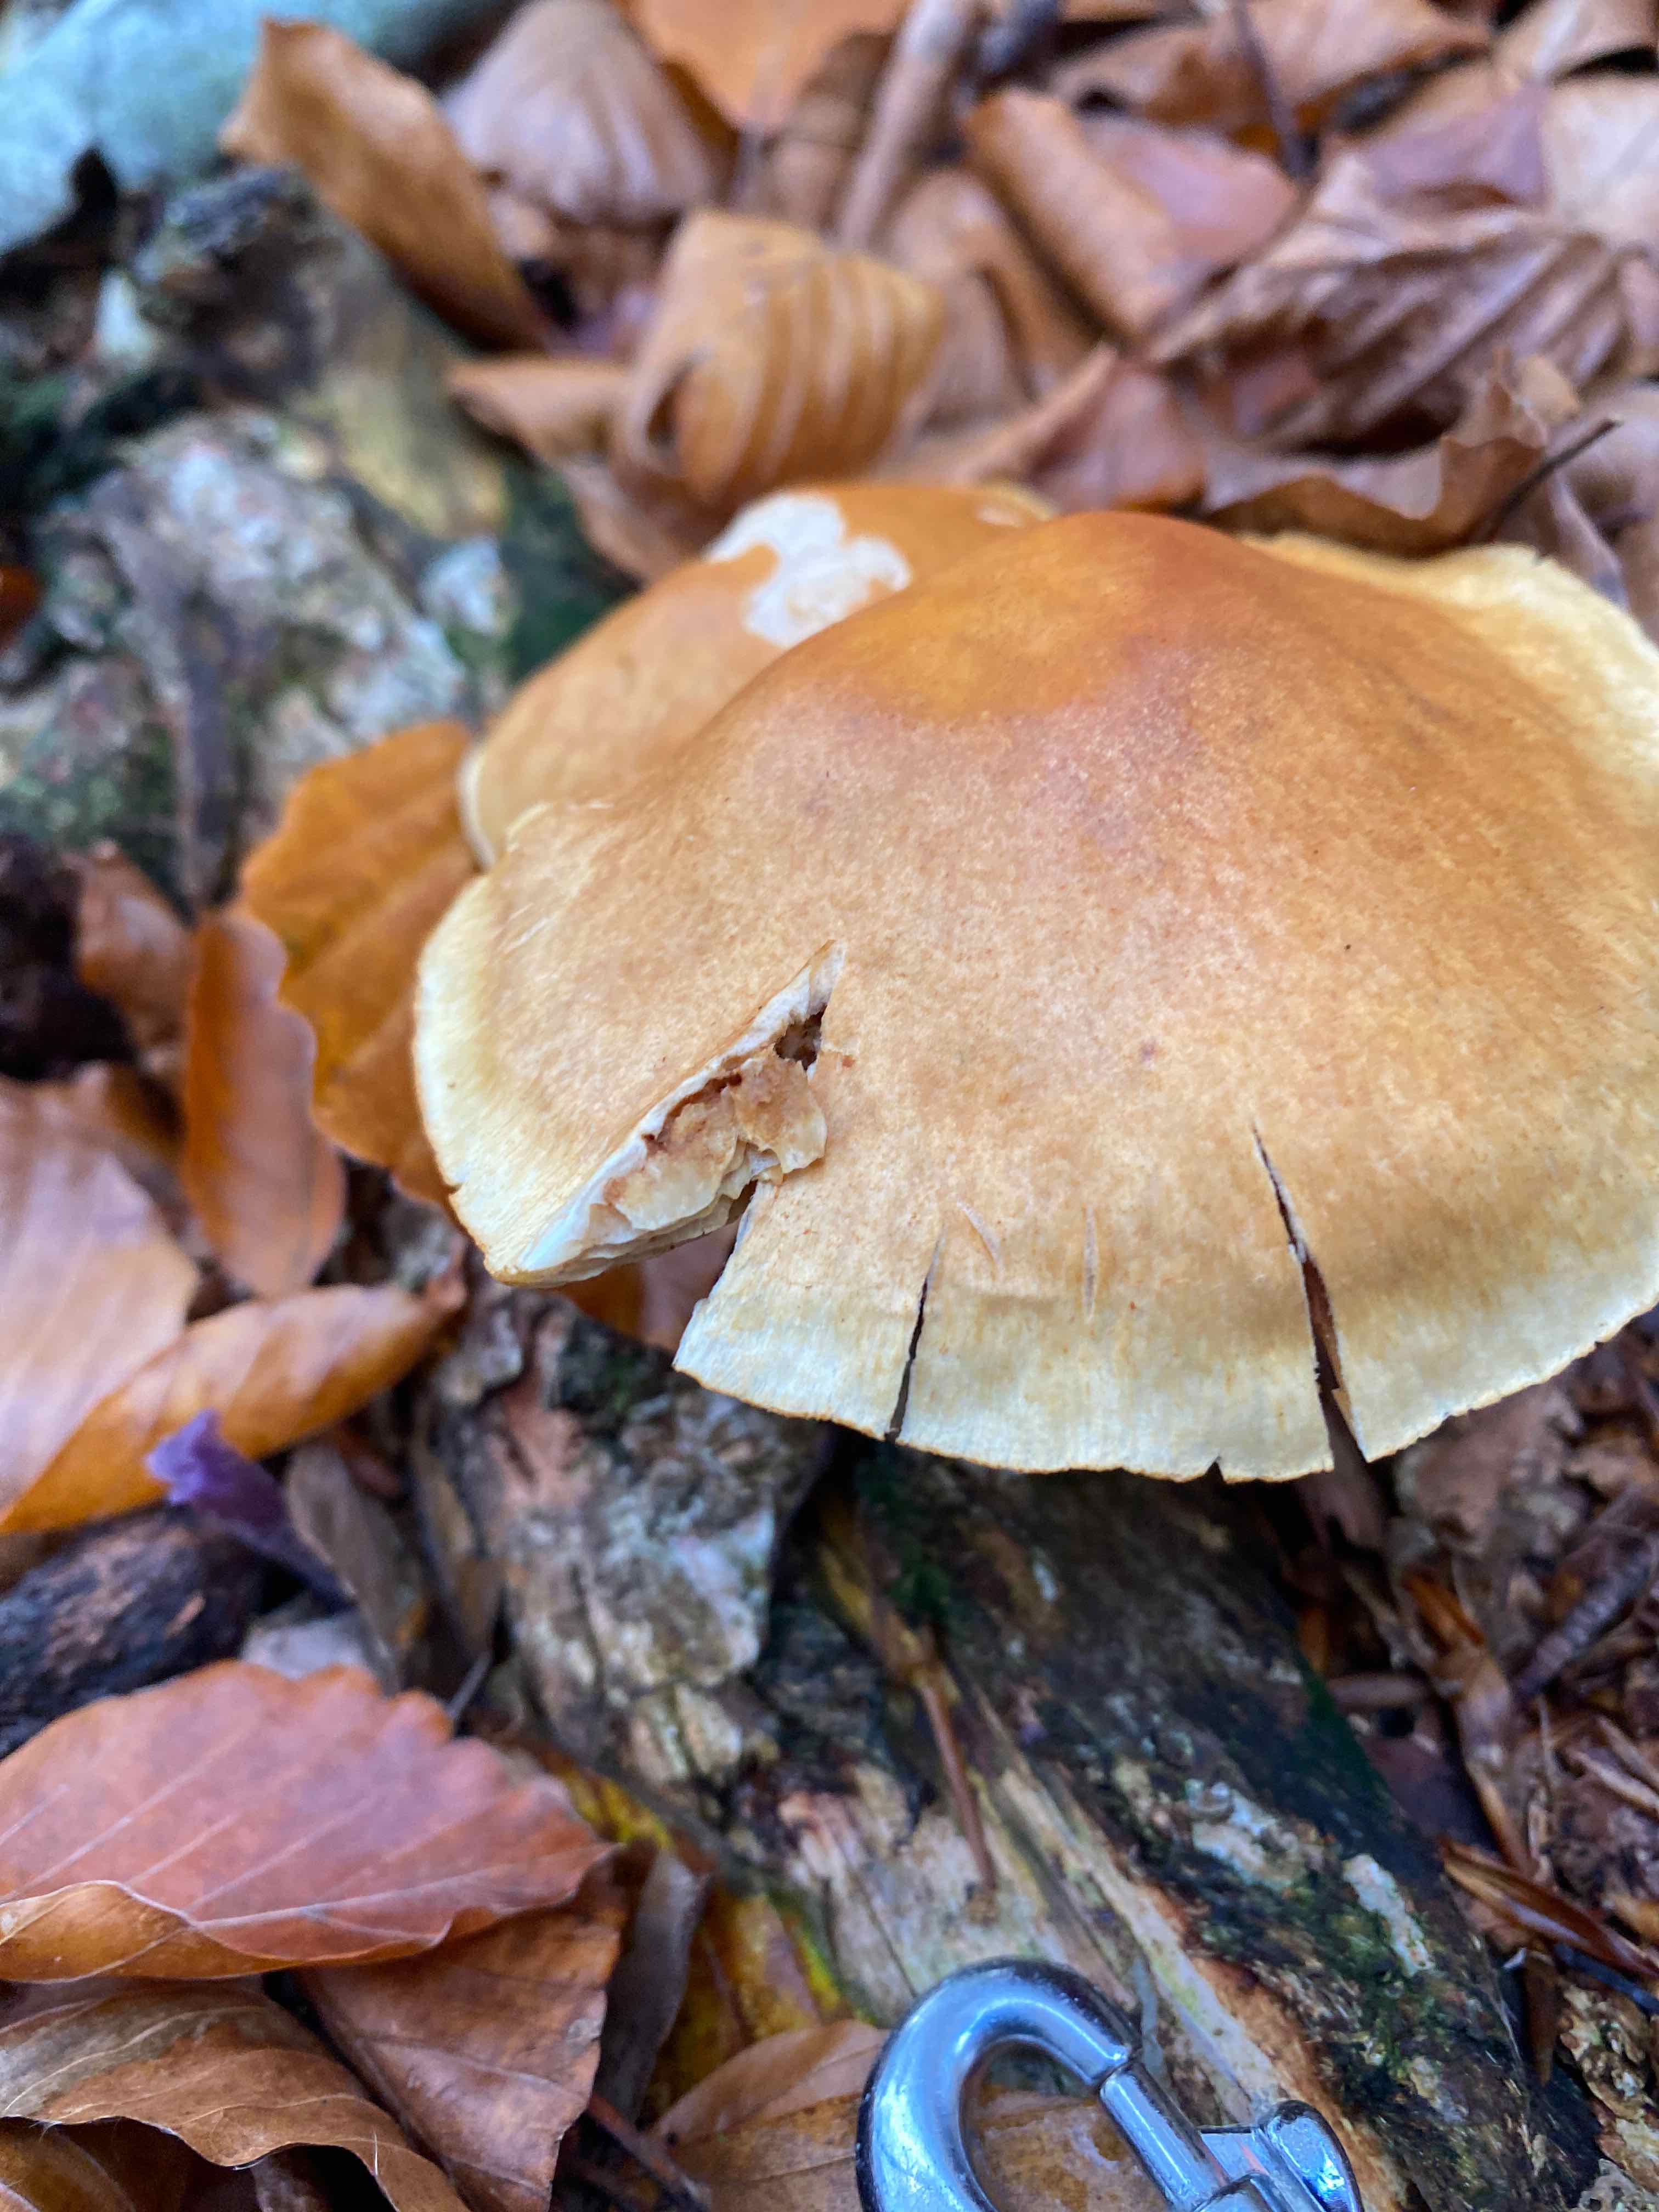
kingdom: Fungi
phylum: Basidiomycota
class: Agaricomycetes
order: Agaricales
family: Hymenogastraceae
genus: Gymnopilus
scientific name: Gymnopilus penetrans
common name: plettet flammehat
